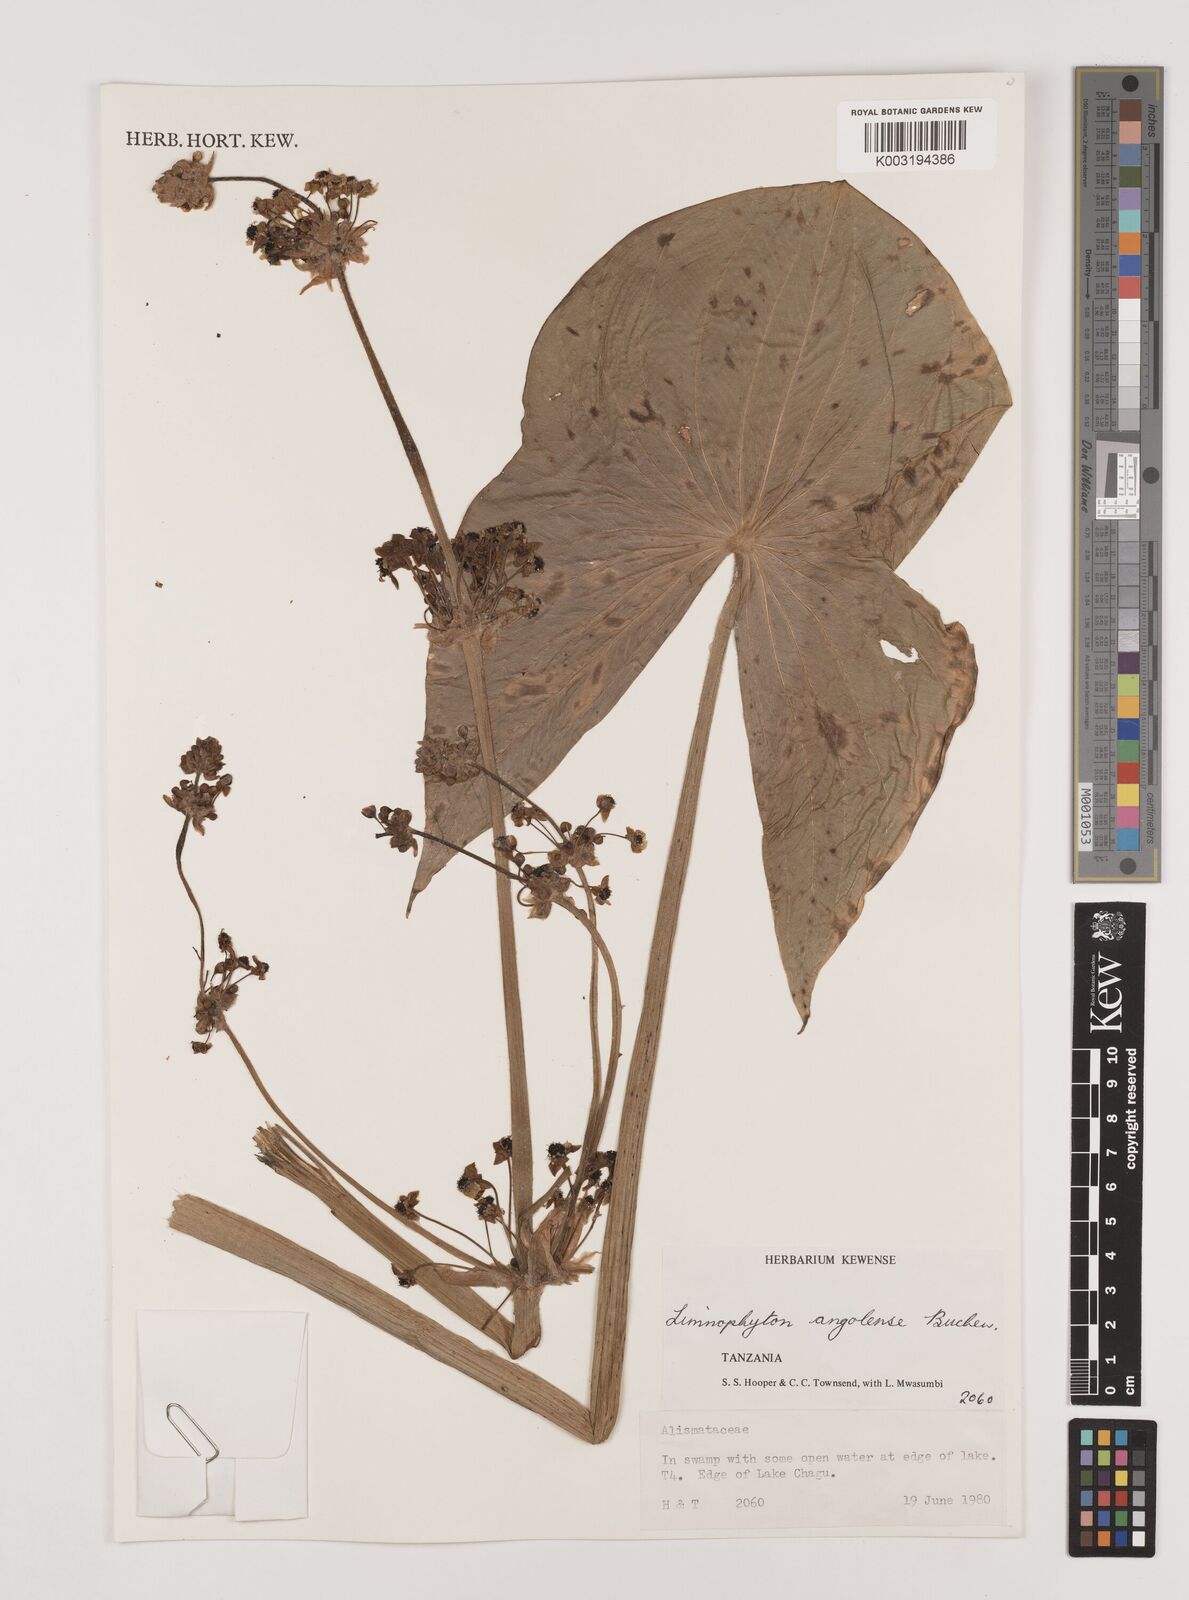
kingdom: Plantae
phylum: Tracheophyta
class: Liliopsida
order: Alismatales
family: Alismataceae
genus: Limnophyton
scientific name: Limnophyton angolense
